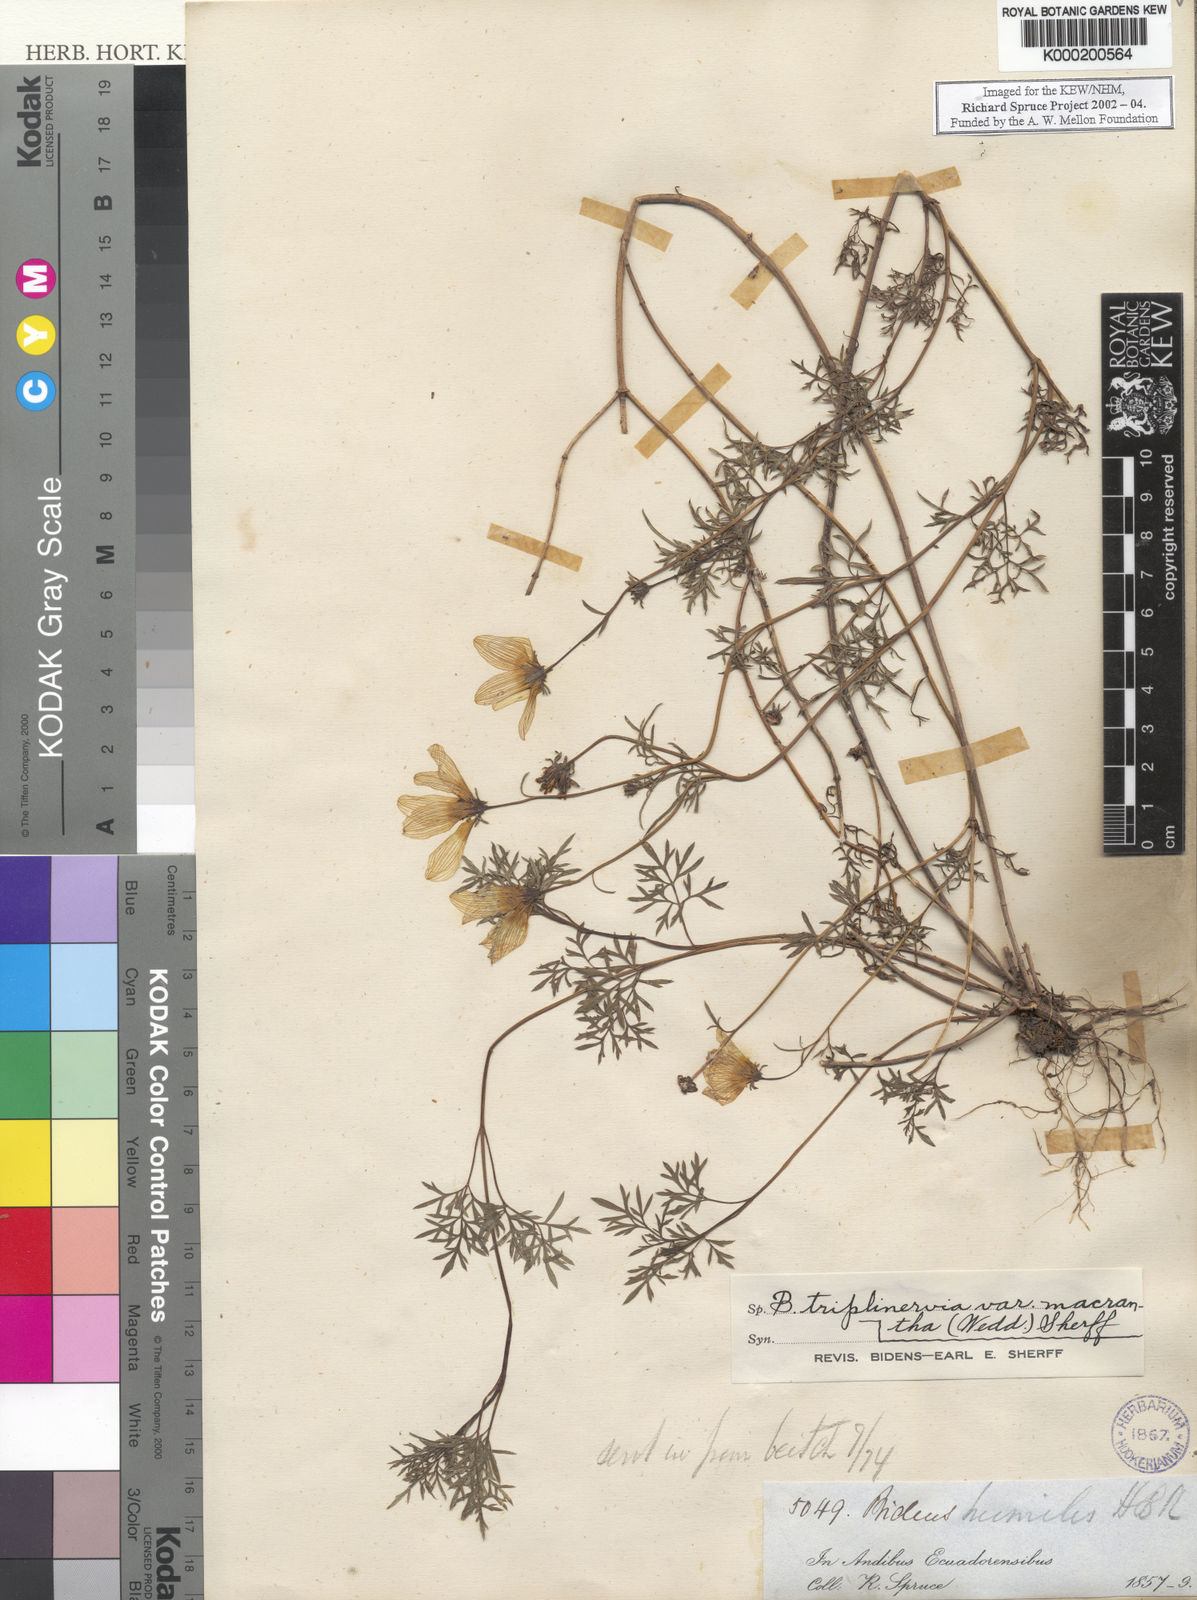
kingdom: Plantae
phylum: Tracheophyta
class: Magnoliopsida
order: Asterales
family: Asteraceae
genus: Bidens
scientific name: Bidens triplinervia
